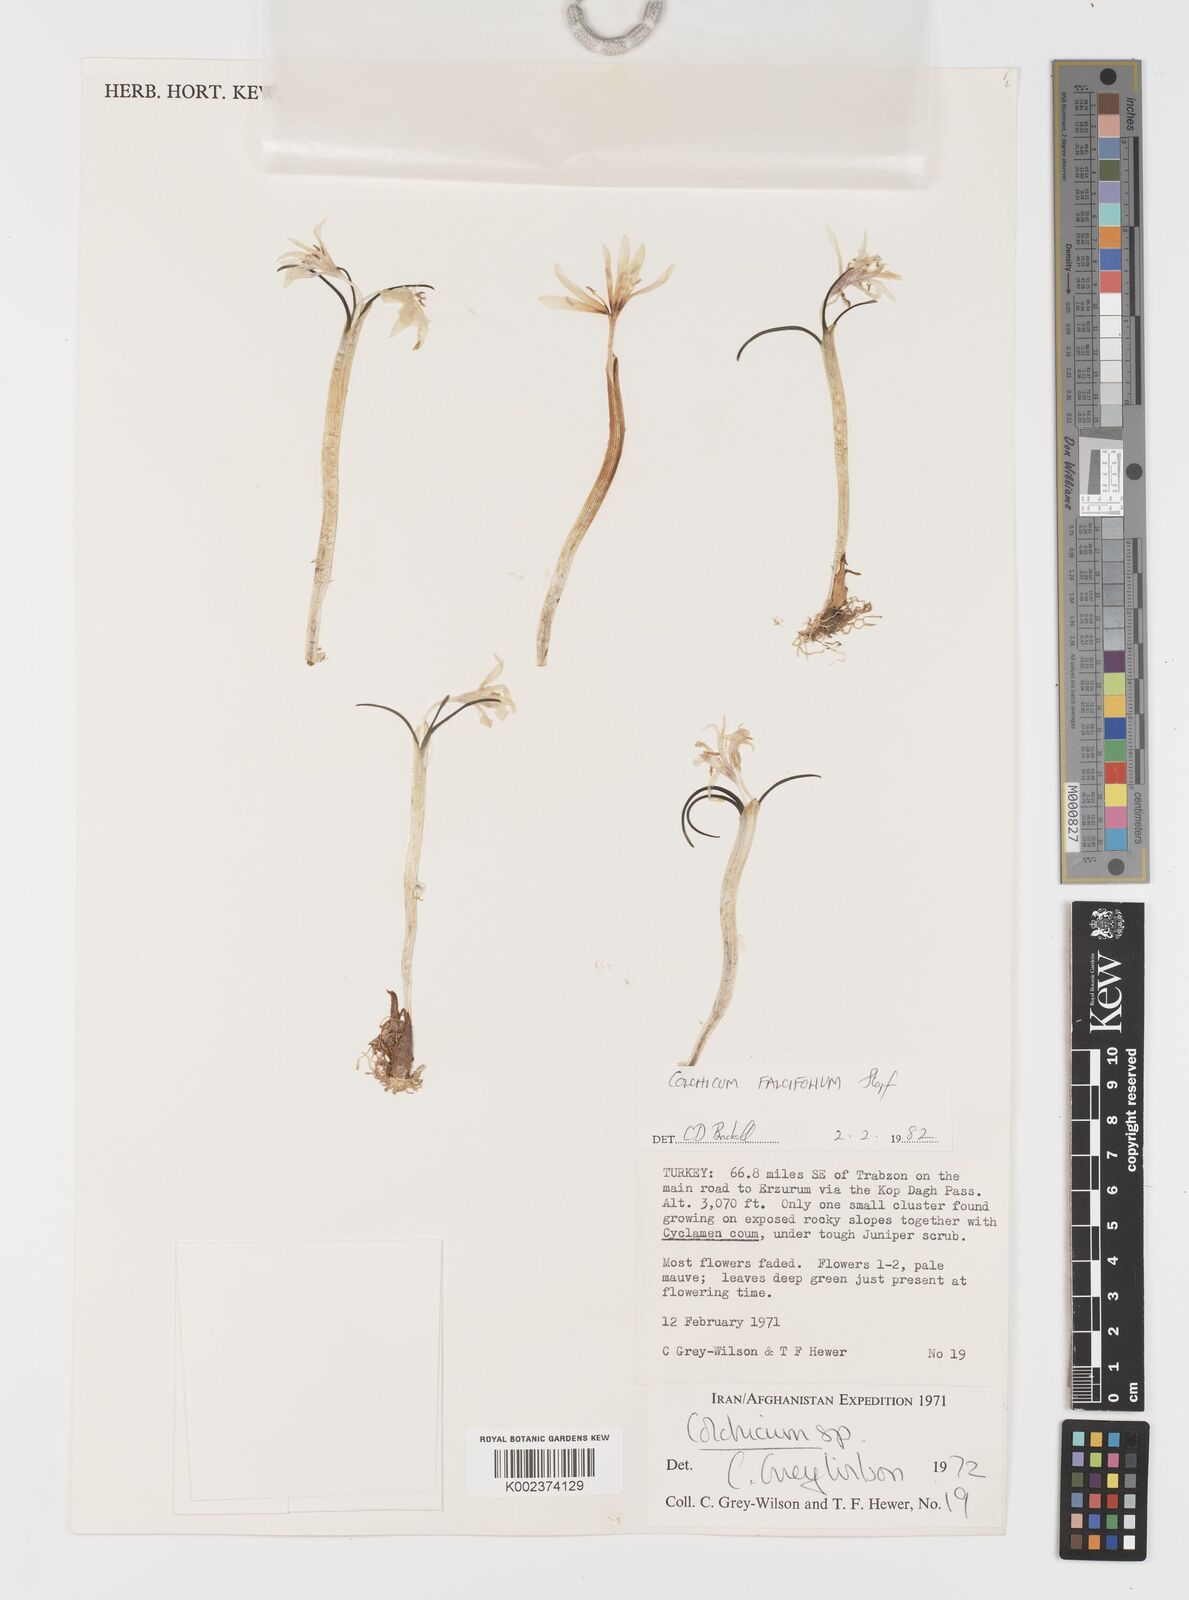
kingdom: Plantae
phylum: Tracheophyta
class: Liliopsida
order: Asparagales
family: Iridaceae
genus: Iris
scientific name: Iris caucasica
